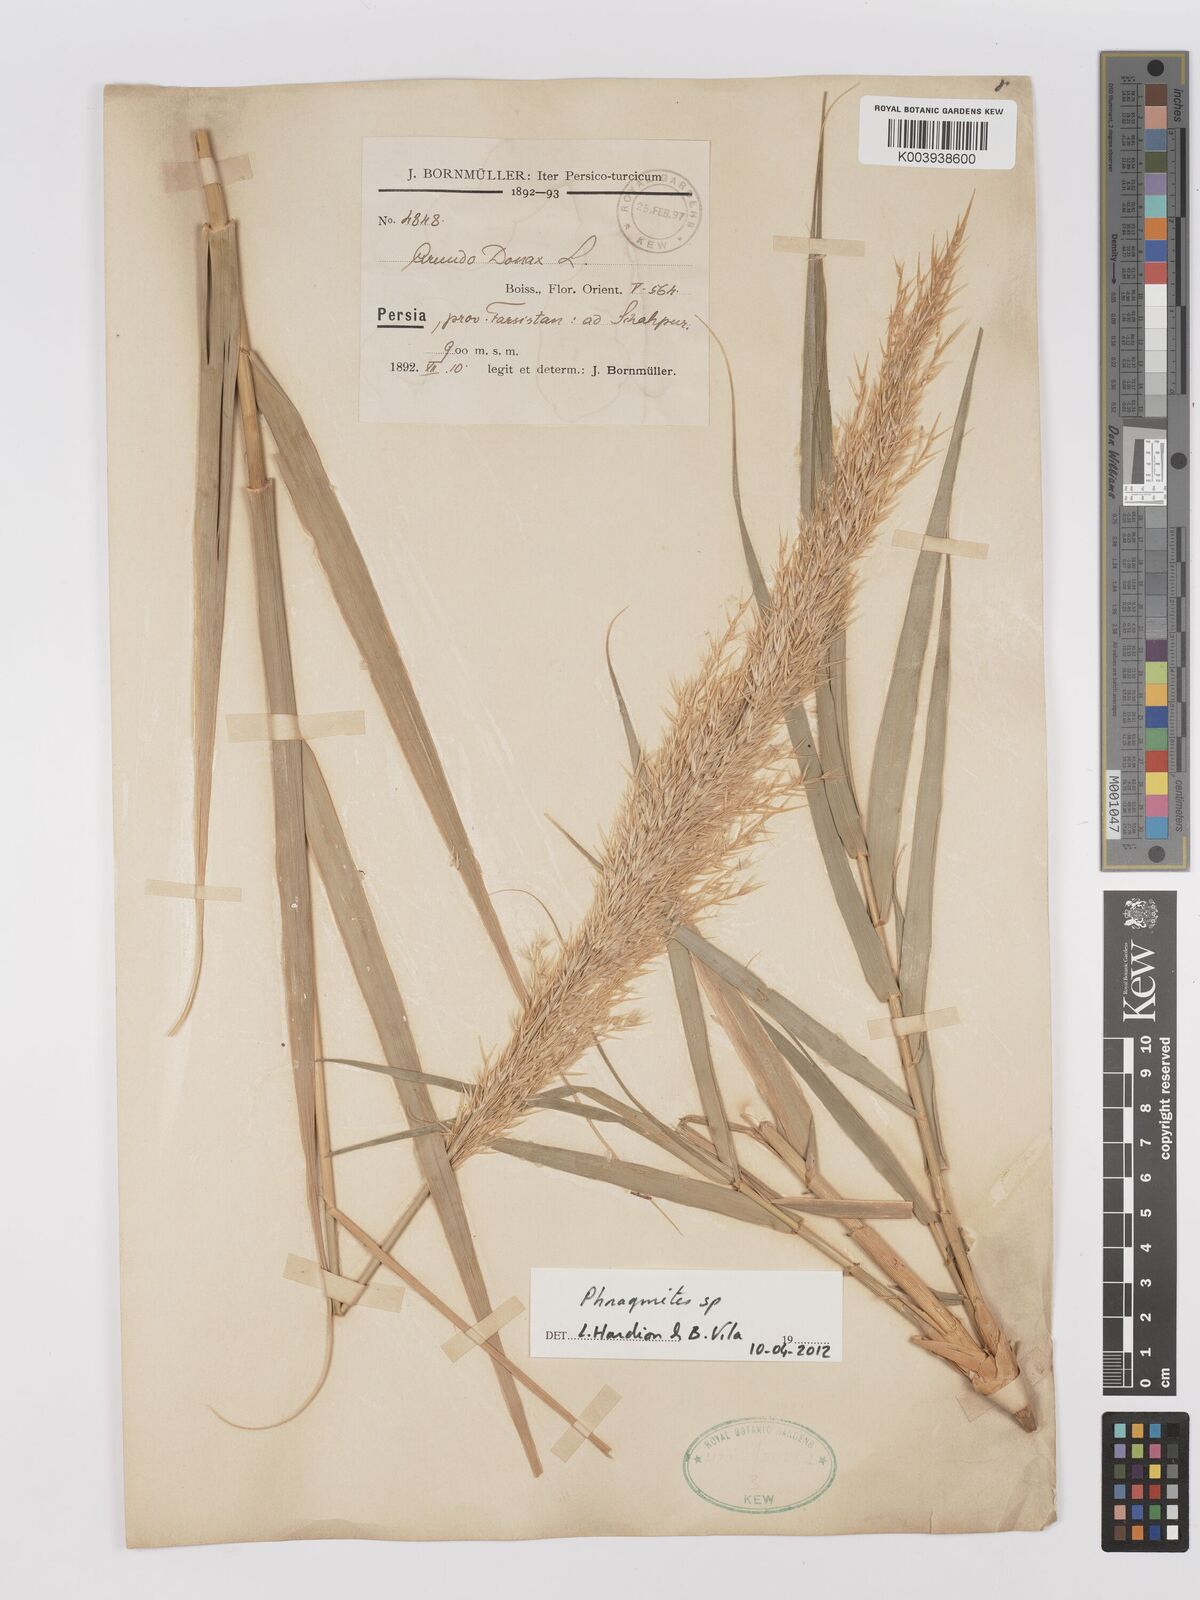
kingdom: Plantae
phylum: Tracheophyta
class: Liliopsida
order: Poales
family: Poaceae
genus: Phragmites
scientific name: Phragmites
